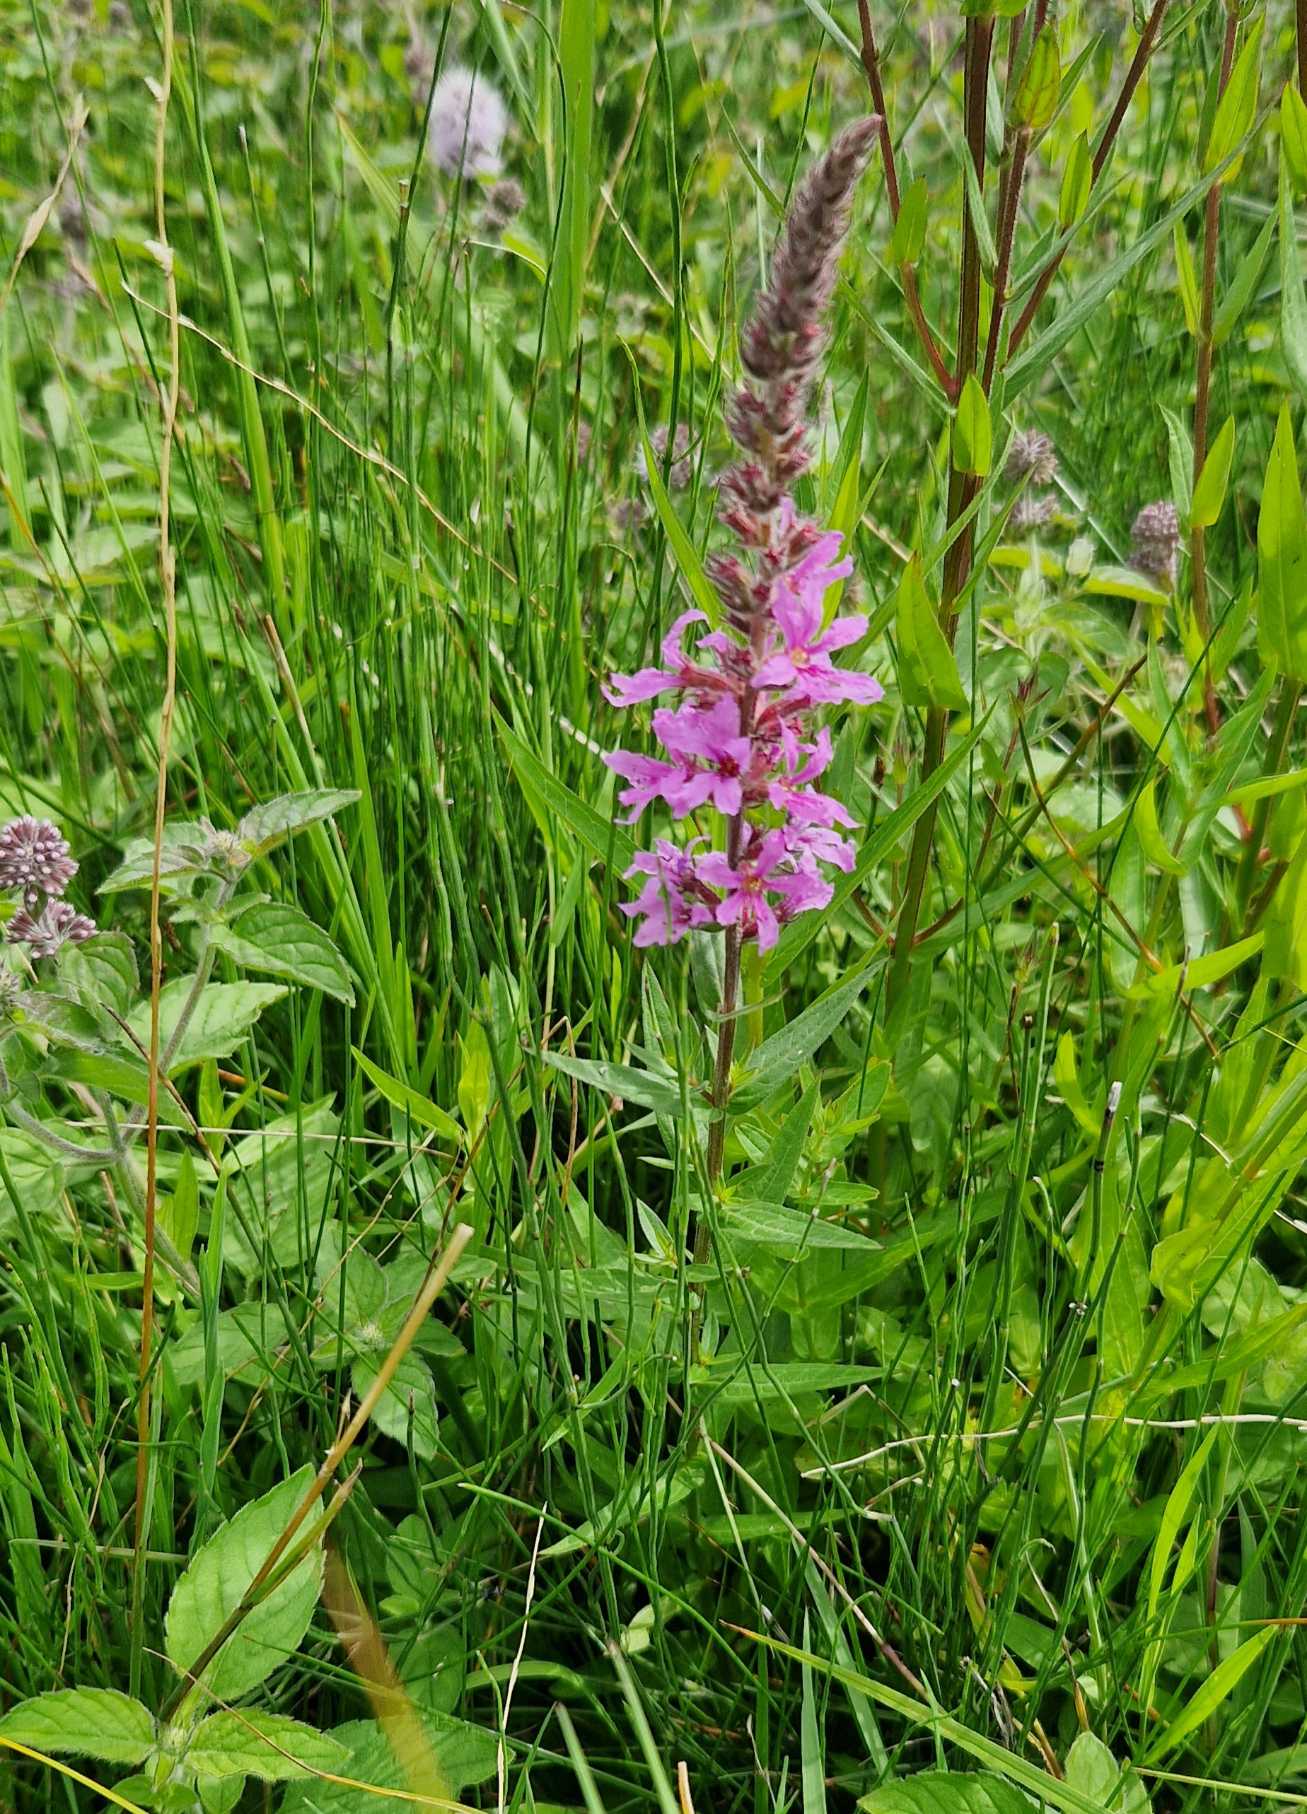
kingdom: Plantae
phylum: Tracheophyta
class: Magnoliopsida
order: Myrtales
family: Lythraceae
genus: Lythrum
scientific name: Lythrum salicaria
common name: Kattehale
